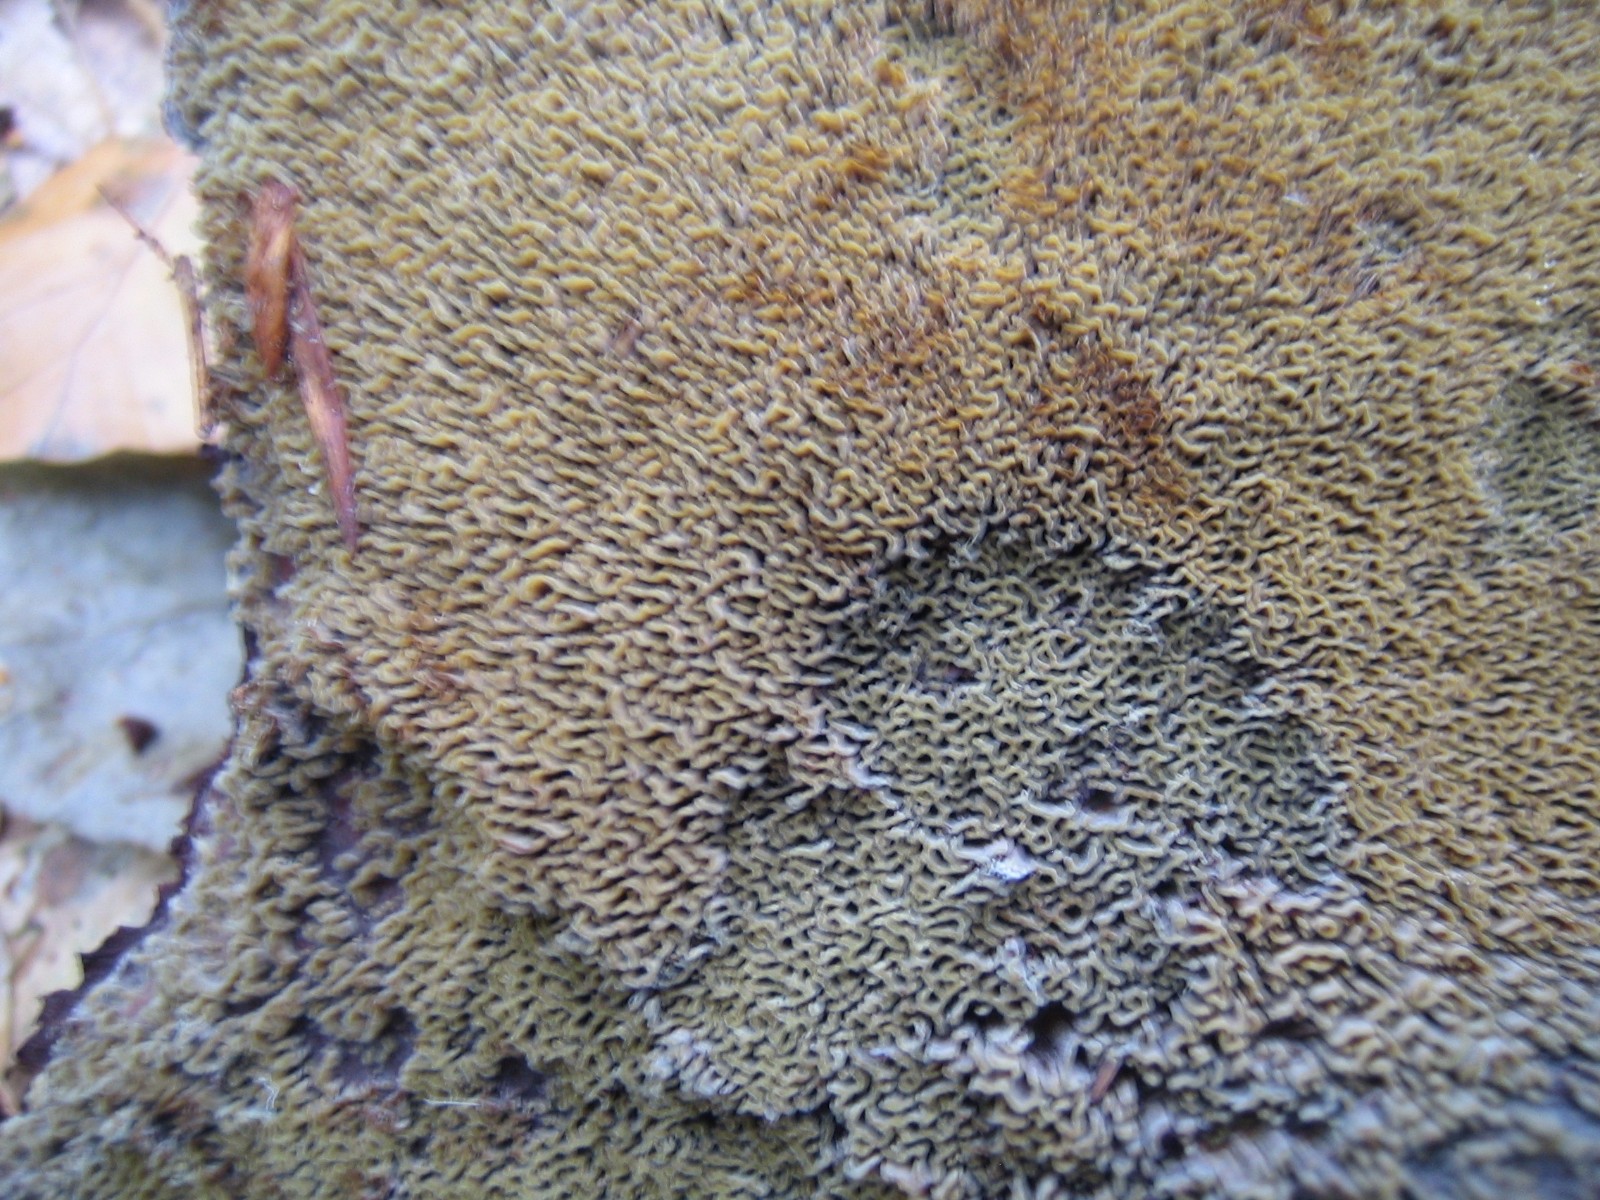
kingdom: Fungi
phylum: Basidiomycota
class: Agaricomycetes
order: Polyporales
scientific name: Polyporales
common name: poresvampordenen
